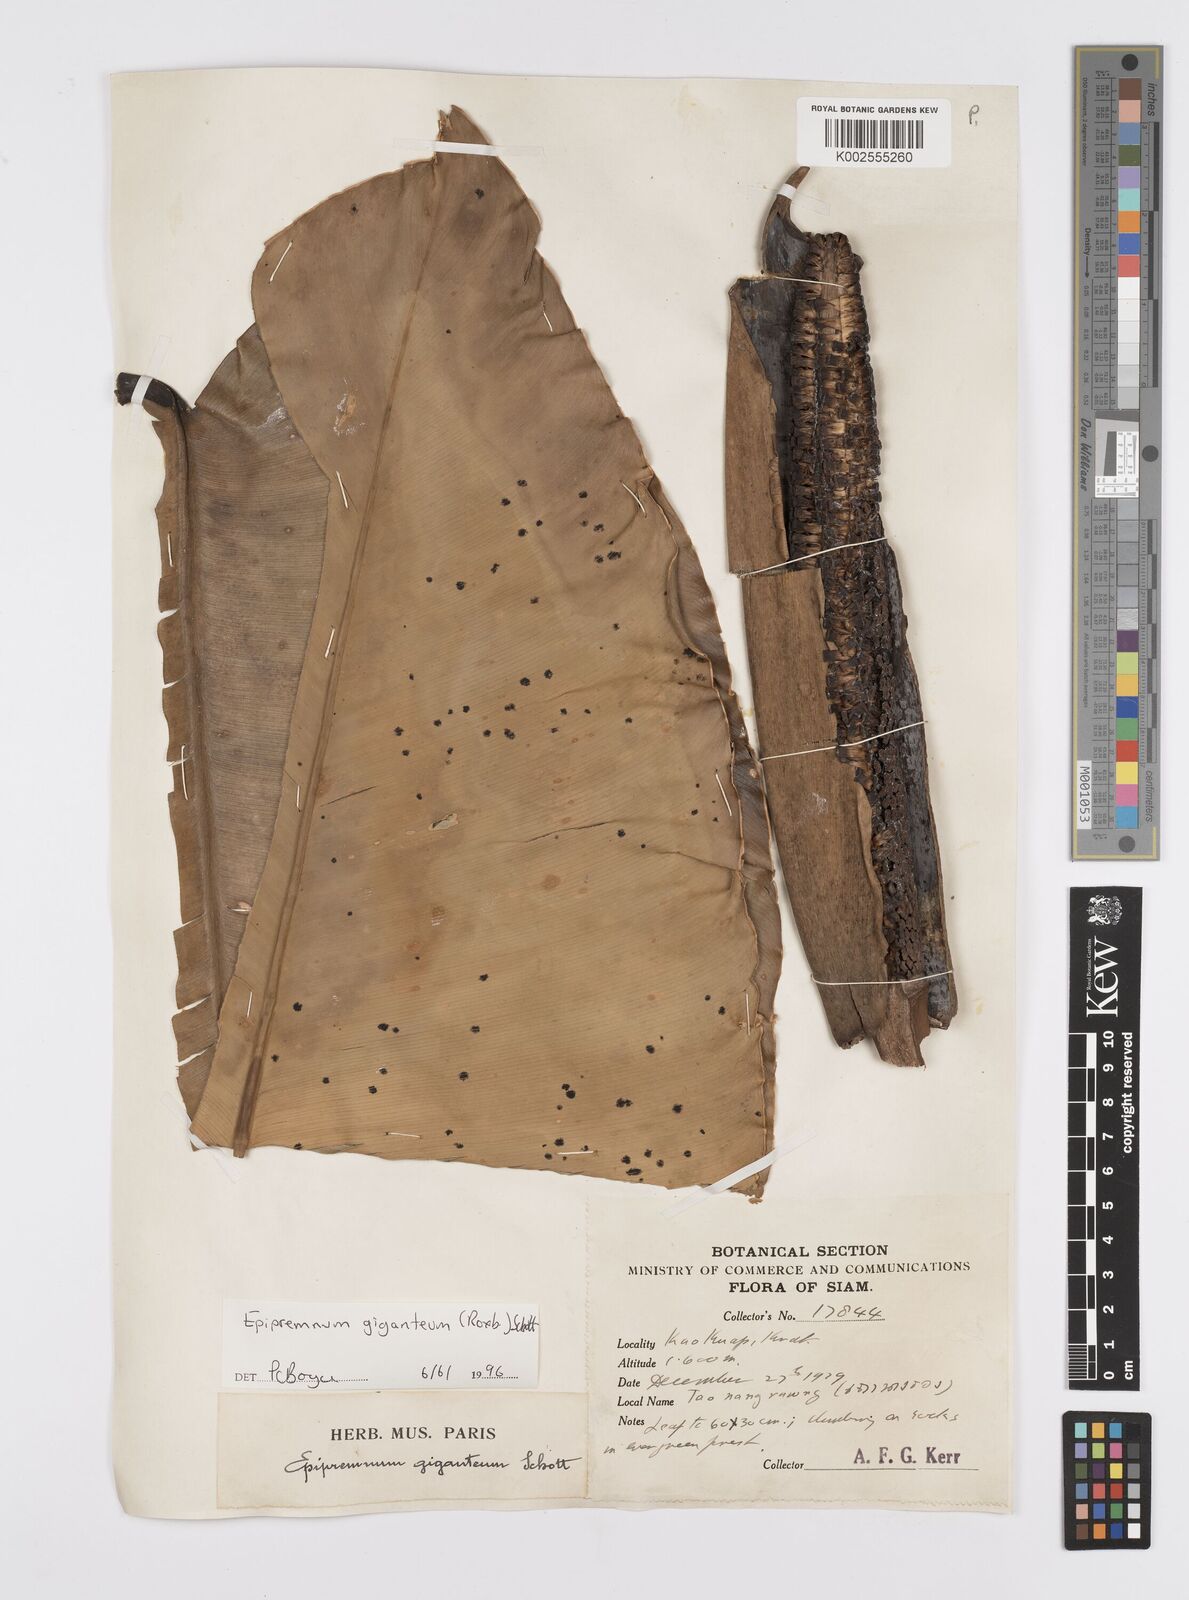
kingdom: Plantae
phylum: Tracheophyta
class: Liliopsida
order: Alismatales
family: Araceae
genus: Epipremnum
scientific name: Epipremnum giganteum
